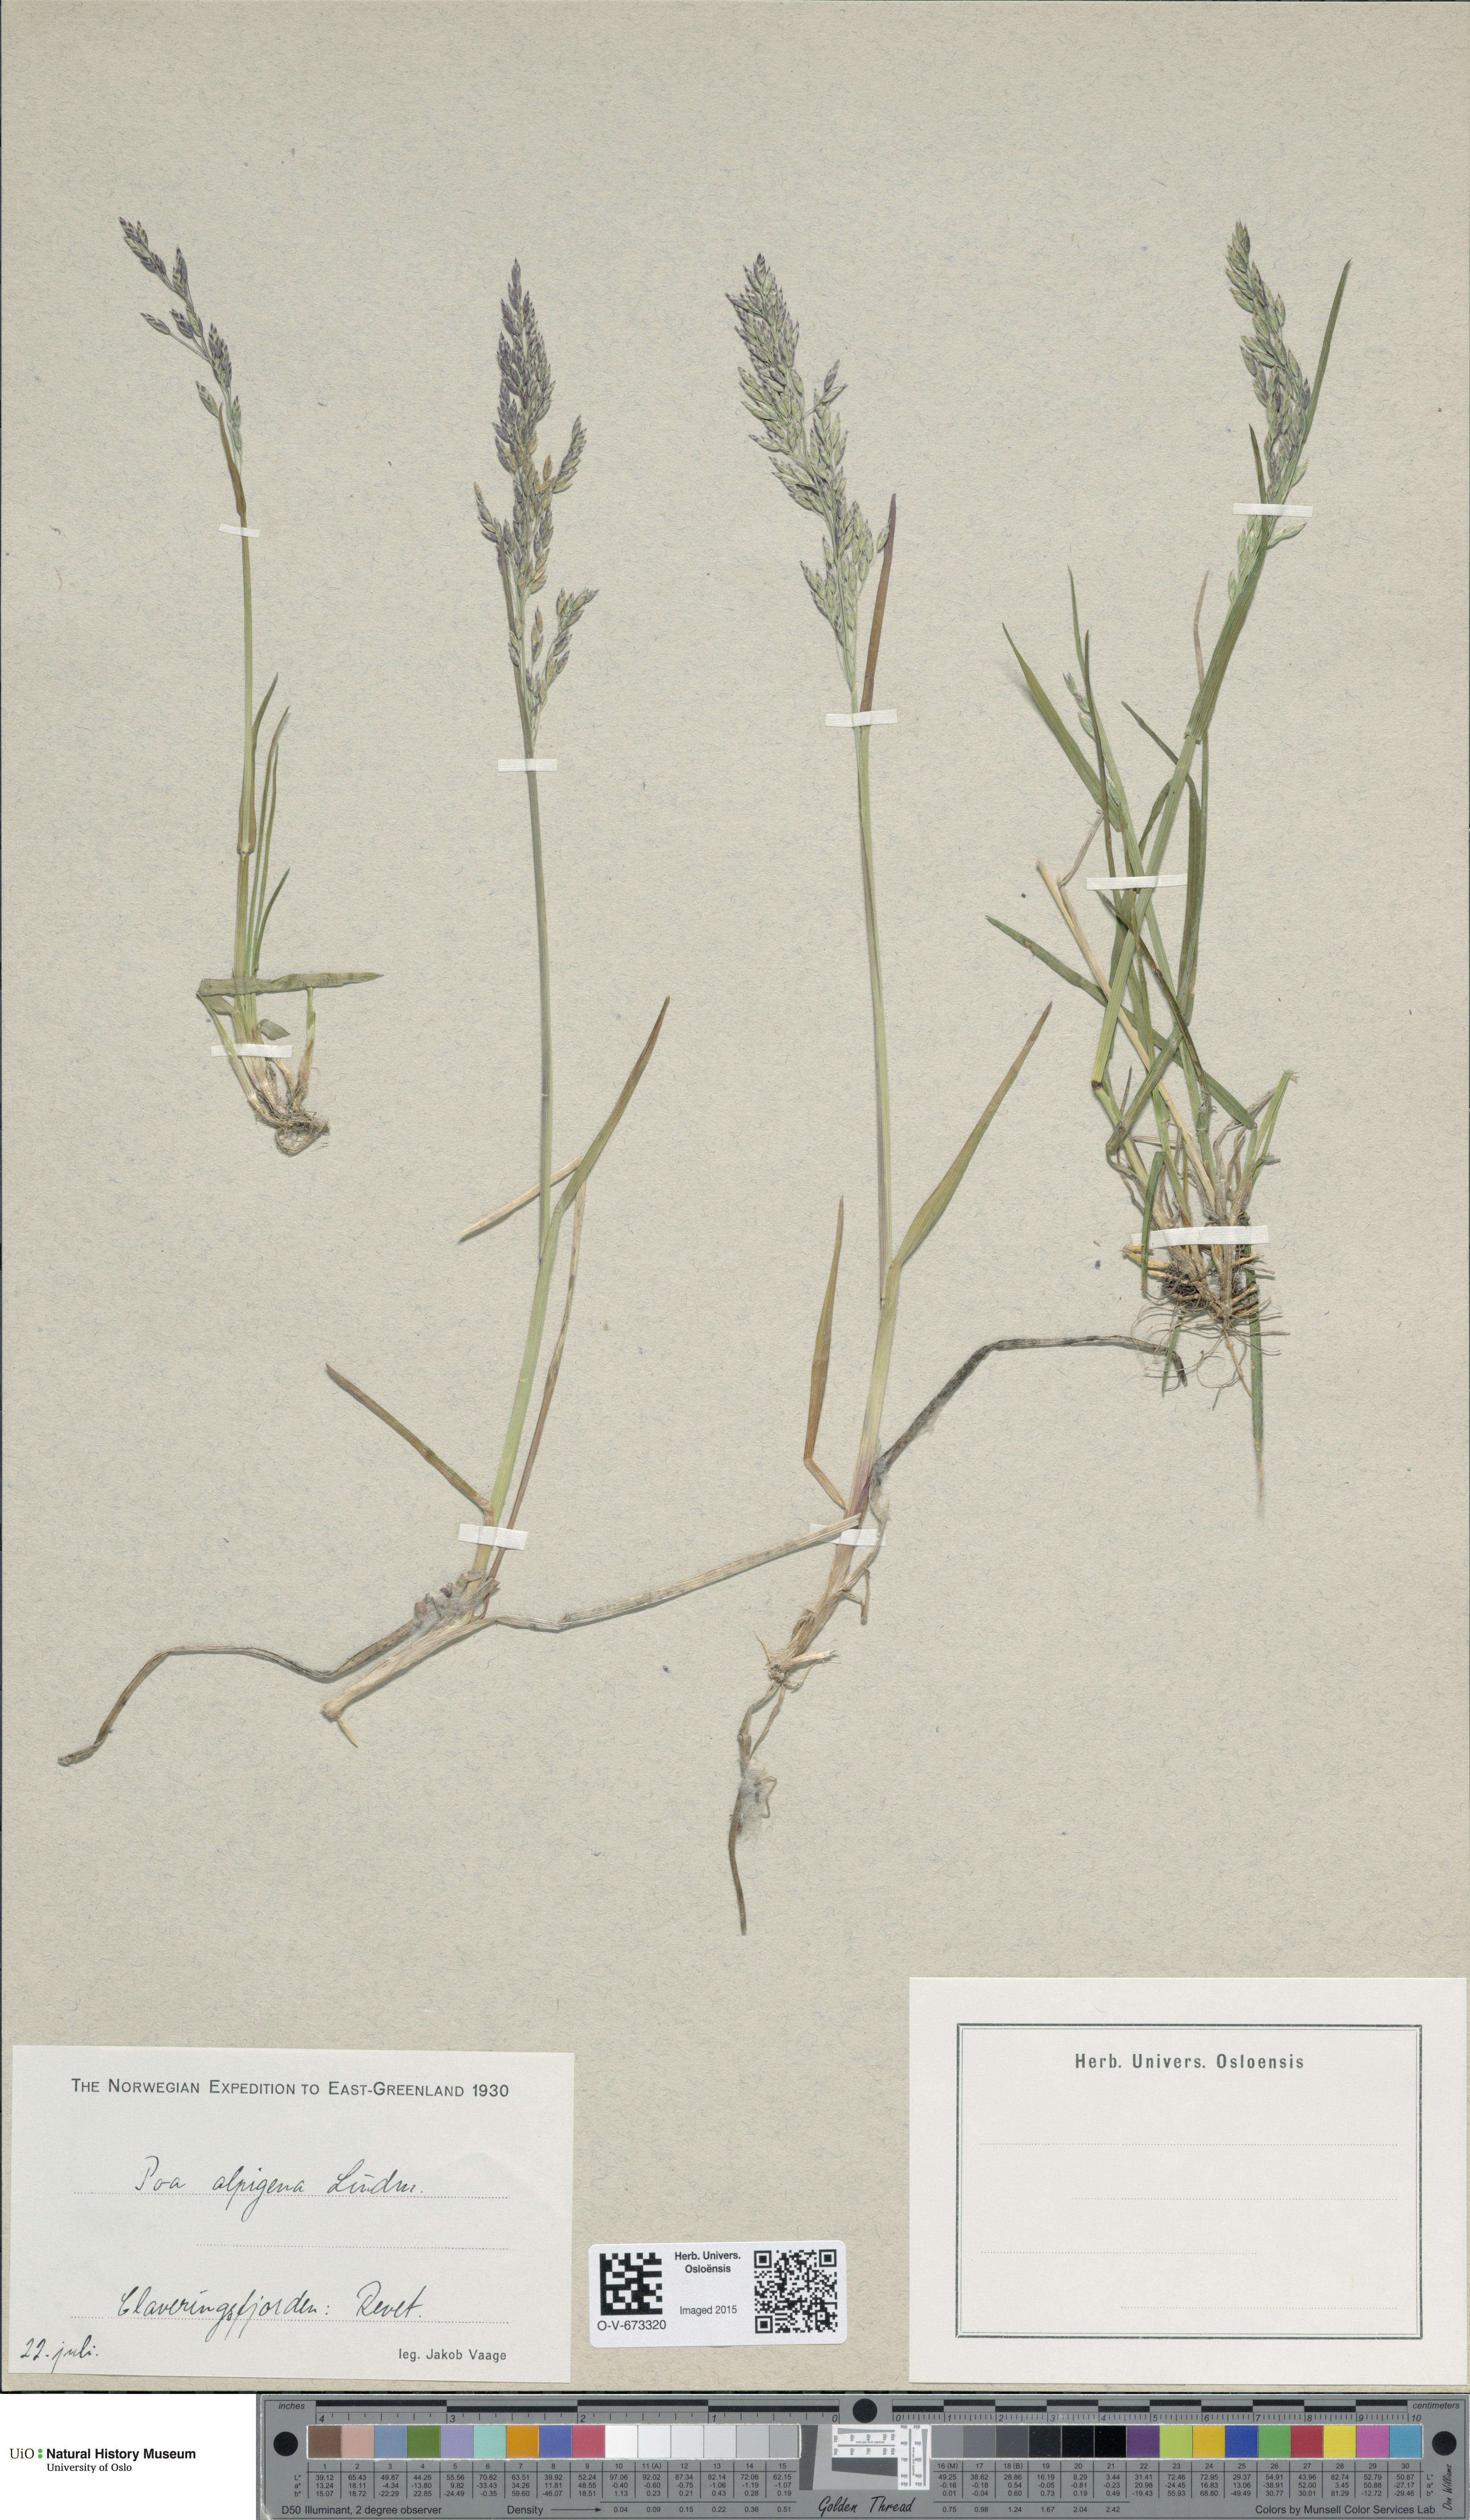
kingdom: Plantae
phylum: Tracheophyta
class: Liliopsida
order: Poales
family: Poaceae
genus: Poa
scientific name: Poa alpigena
